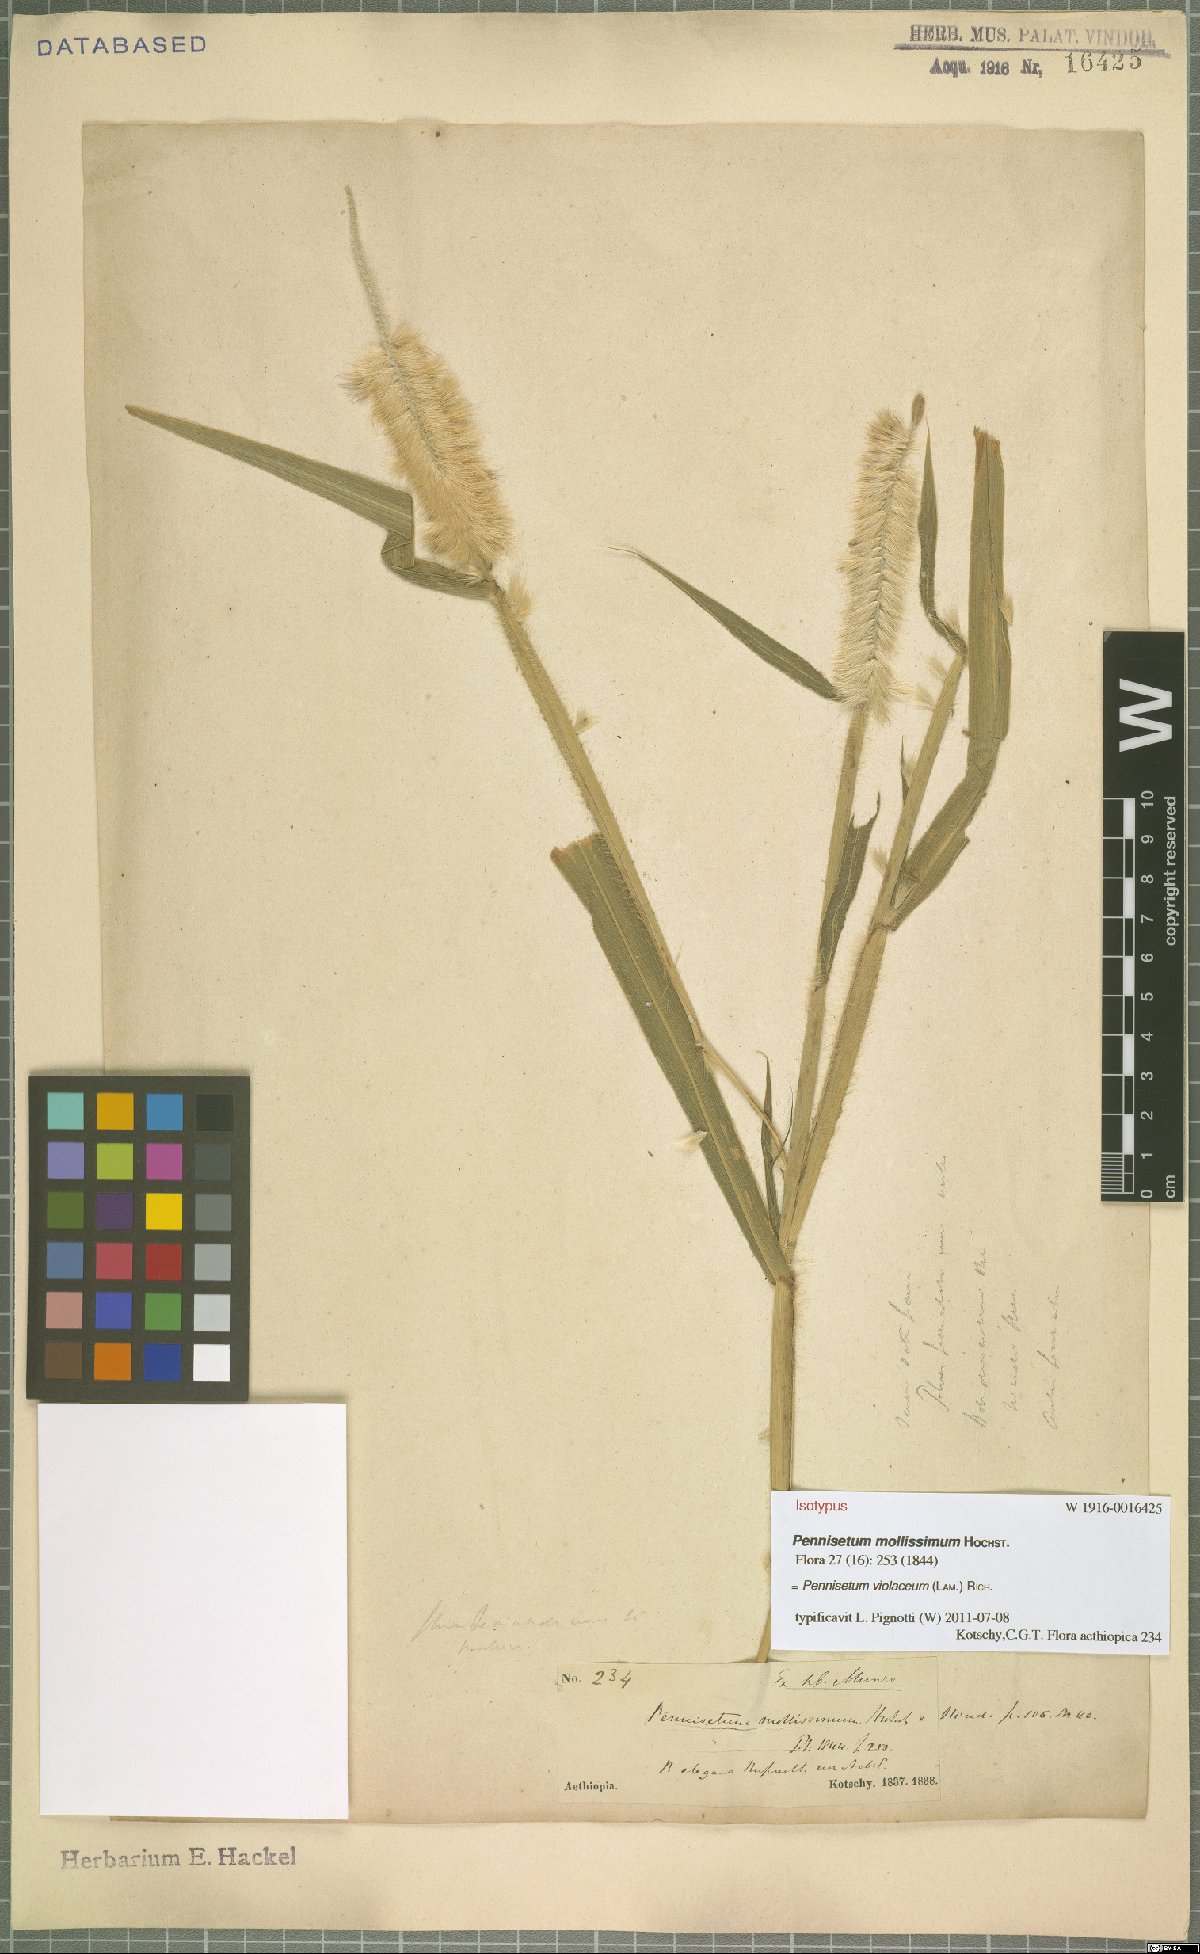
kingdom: Plantae
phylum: Tracheophyta
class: Liliopsida
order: Poales
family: Poaceae
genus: Cenchrus
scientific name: Cenchrus violaceus
